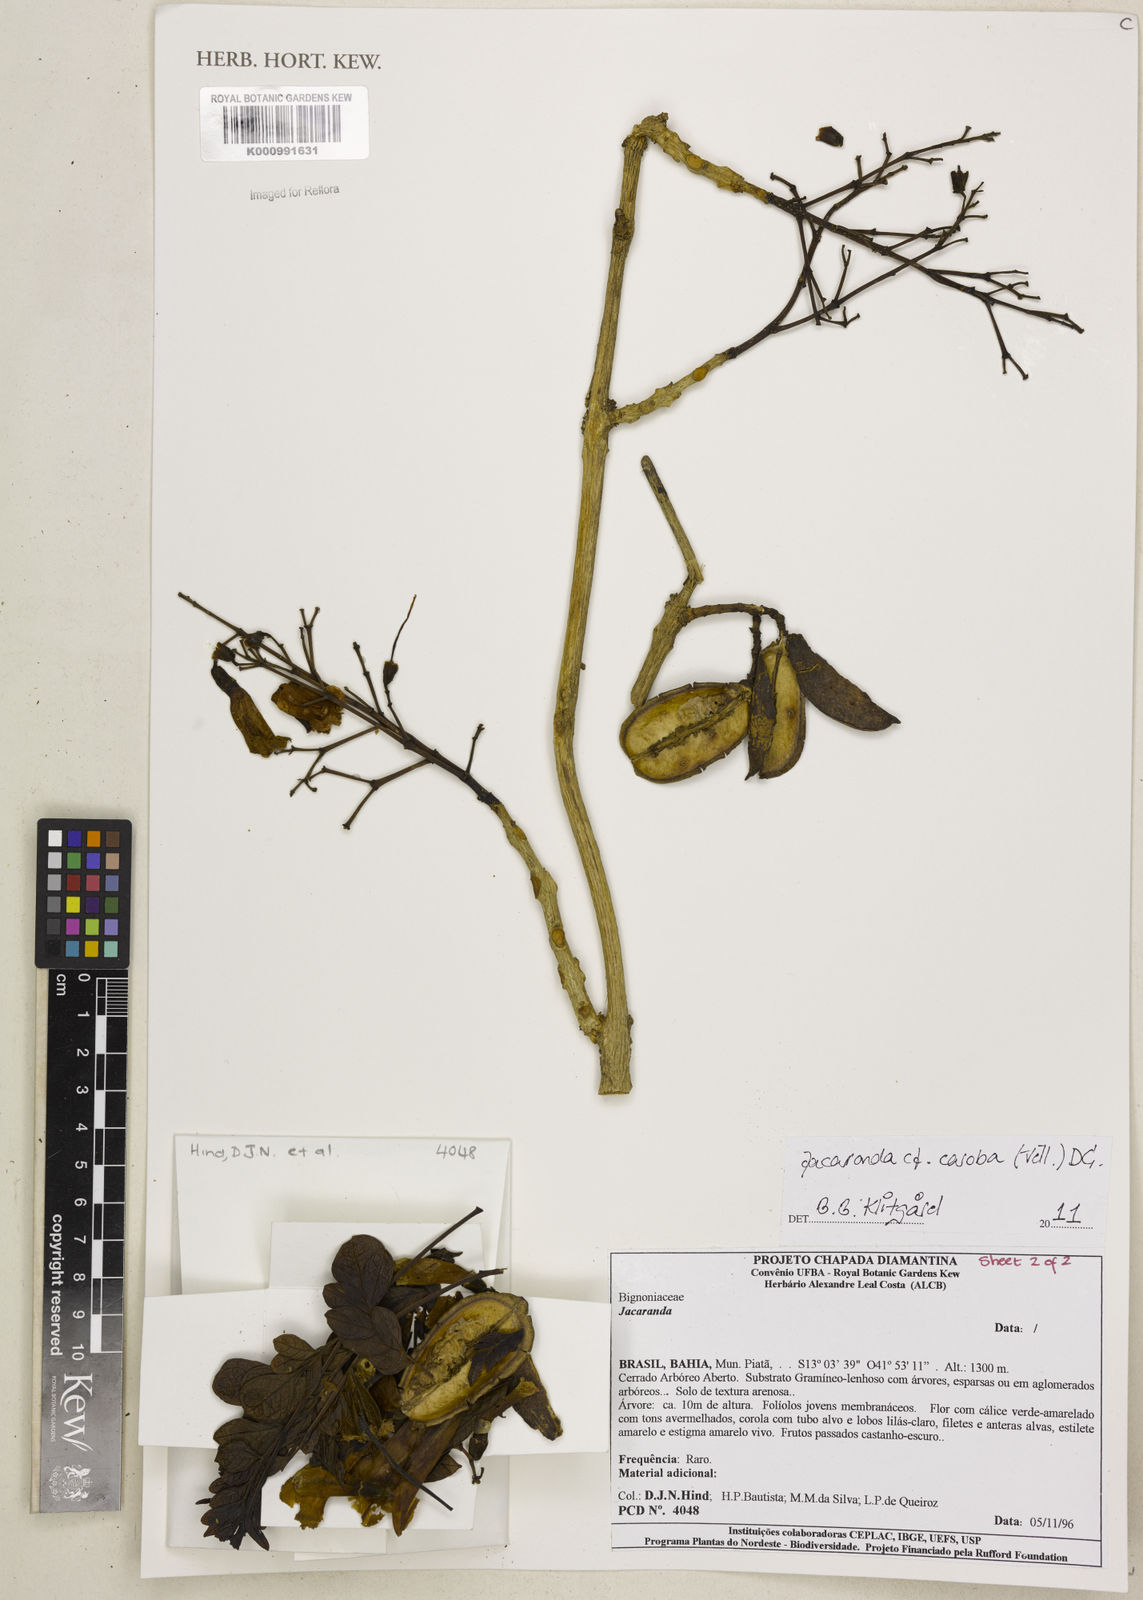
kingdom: Plantae
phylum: Tracheophyta
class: Magnoliopsida
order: Lamiales
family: Bignoniaceae
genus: Jacaranda
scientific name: Jacaranda caroba
